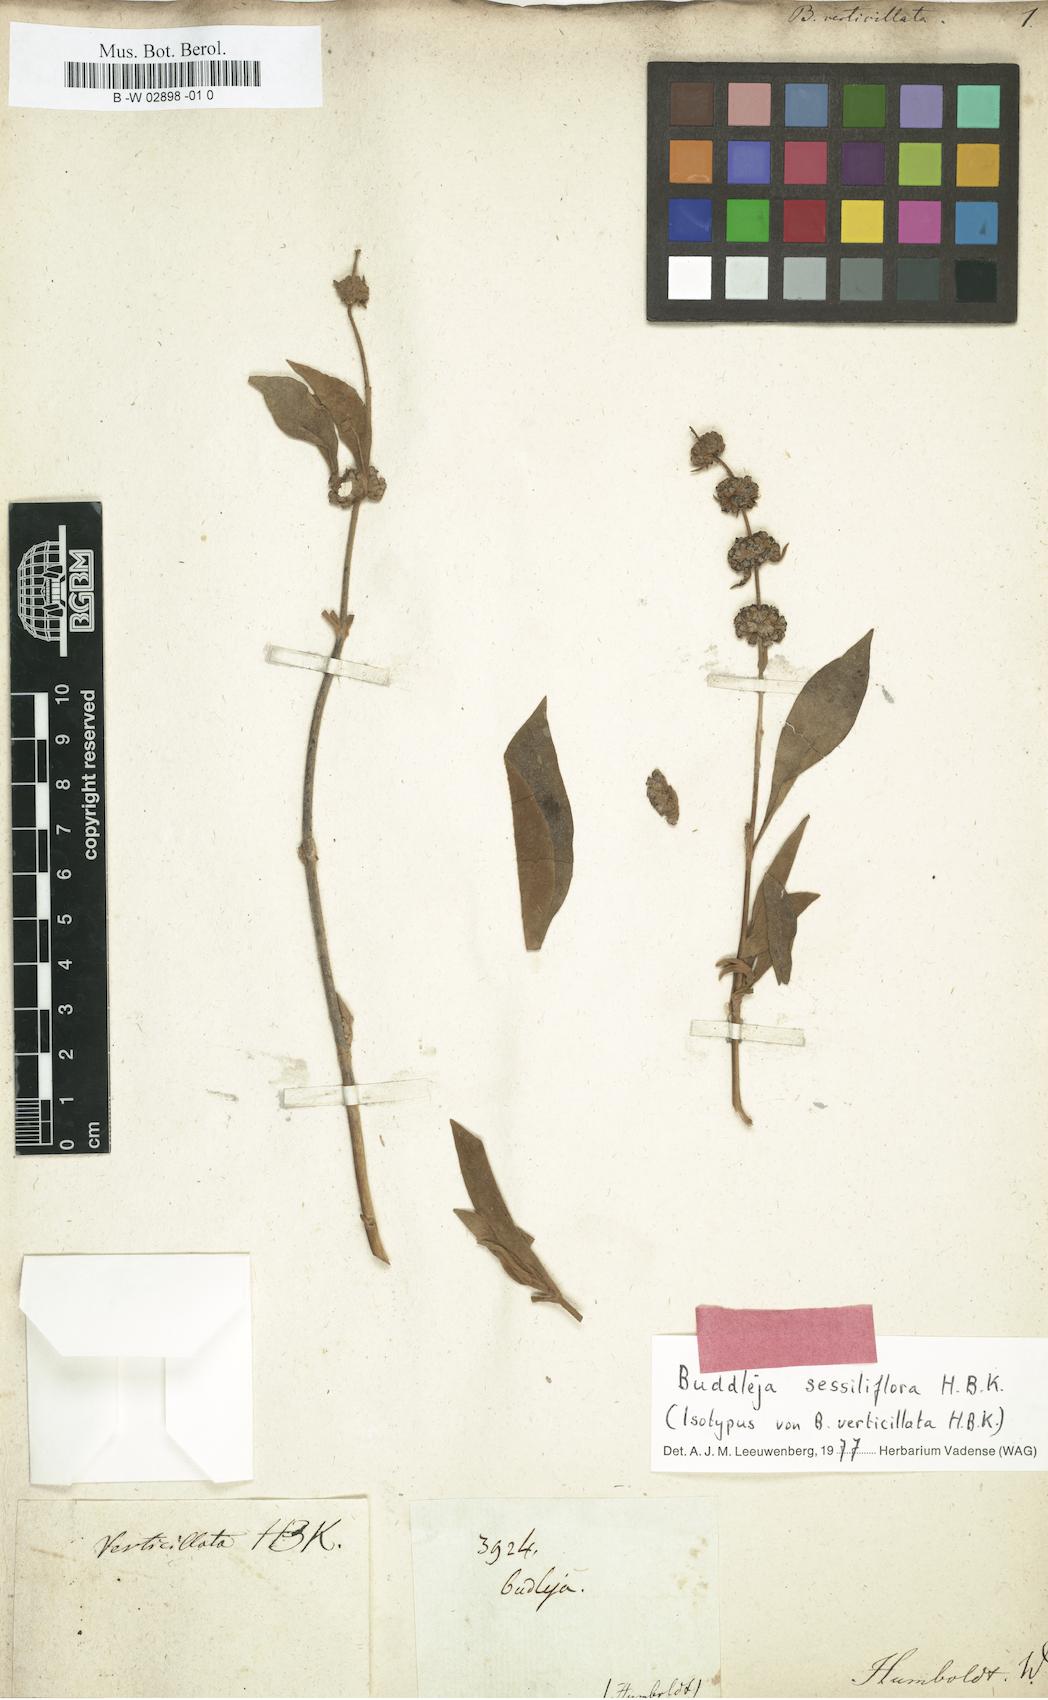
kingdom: Plantae
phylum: Tracheophyta
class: Magnoliopsida
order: Lamiales
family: Scrophulariaceae
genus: Buddleja
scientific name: Buddleja sessiliflora
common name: Rio grande butterfly-bush
